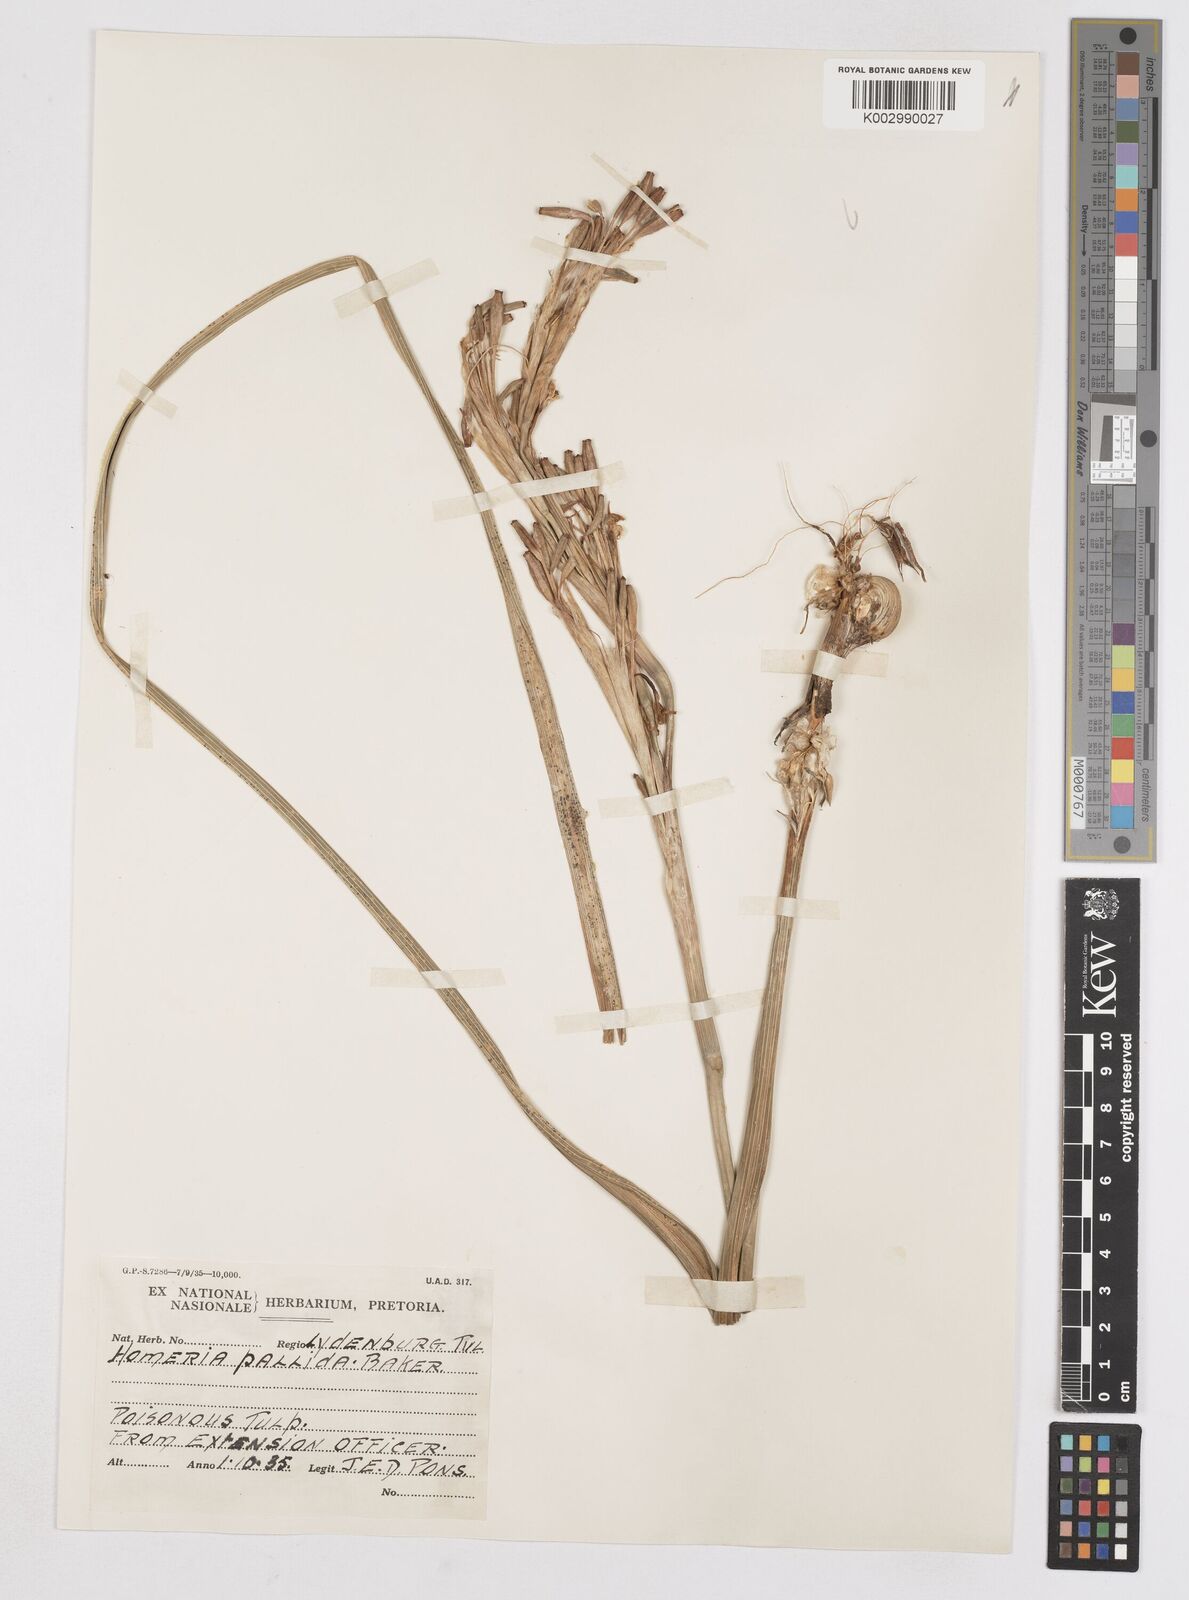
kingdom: Plantae
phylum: Tracheophyta
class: Liliopsida
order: Asparagales
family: Iridaceae
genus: Moraea
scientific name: Moraea pallida
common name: Yellow tulp
